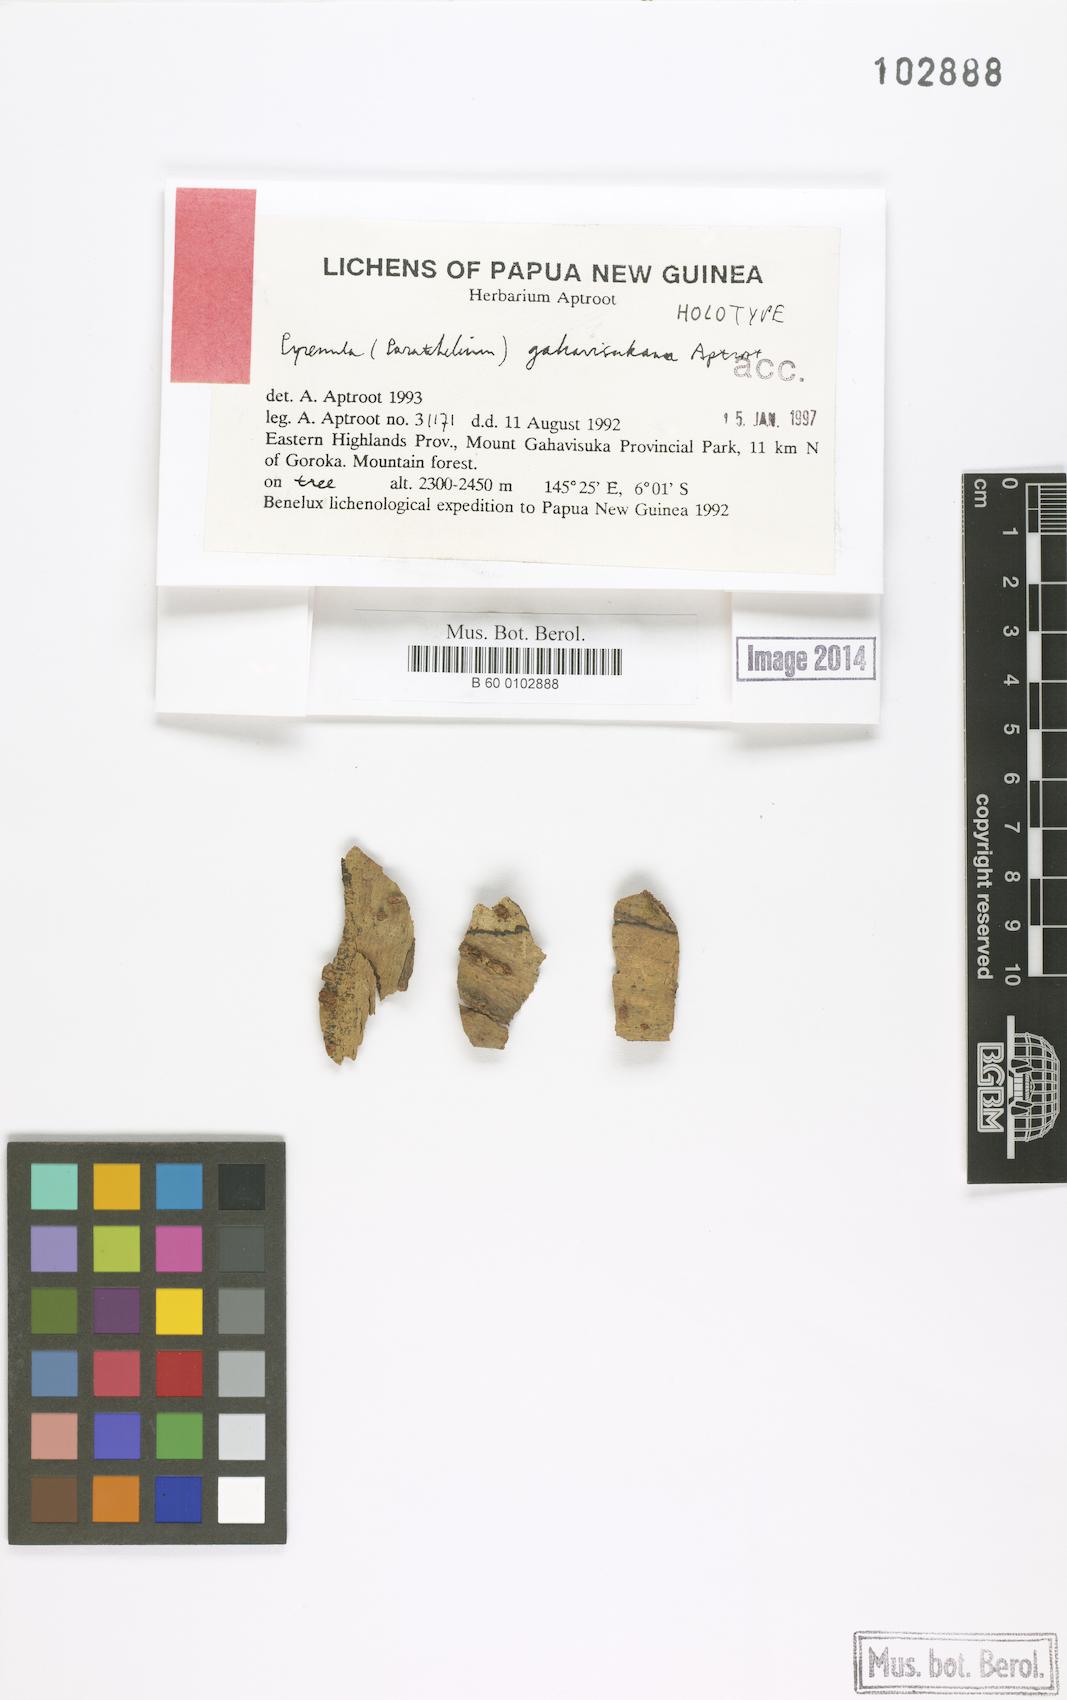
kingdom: Fungi
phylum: Ascomycota
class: Eurotiomycetes
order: Pyrenulales
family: Pyrenulaceae
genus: Pyrenula
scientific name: Pyrenula
